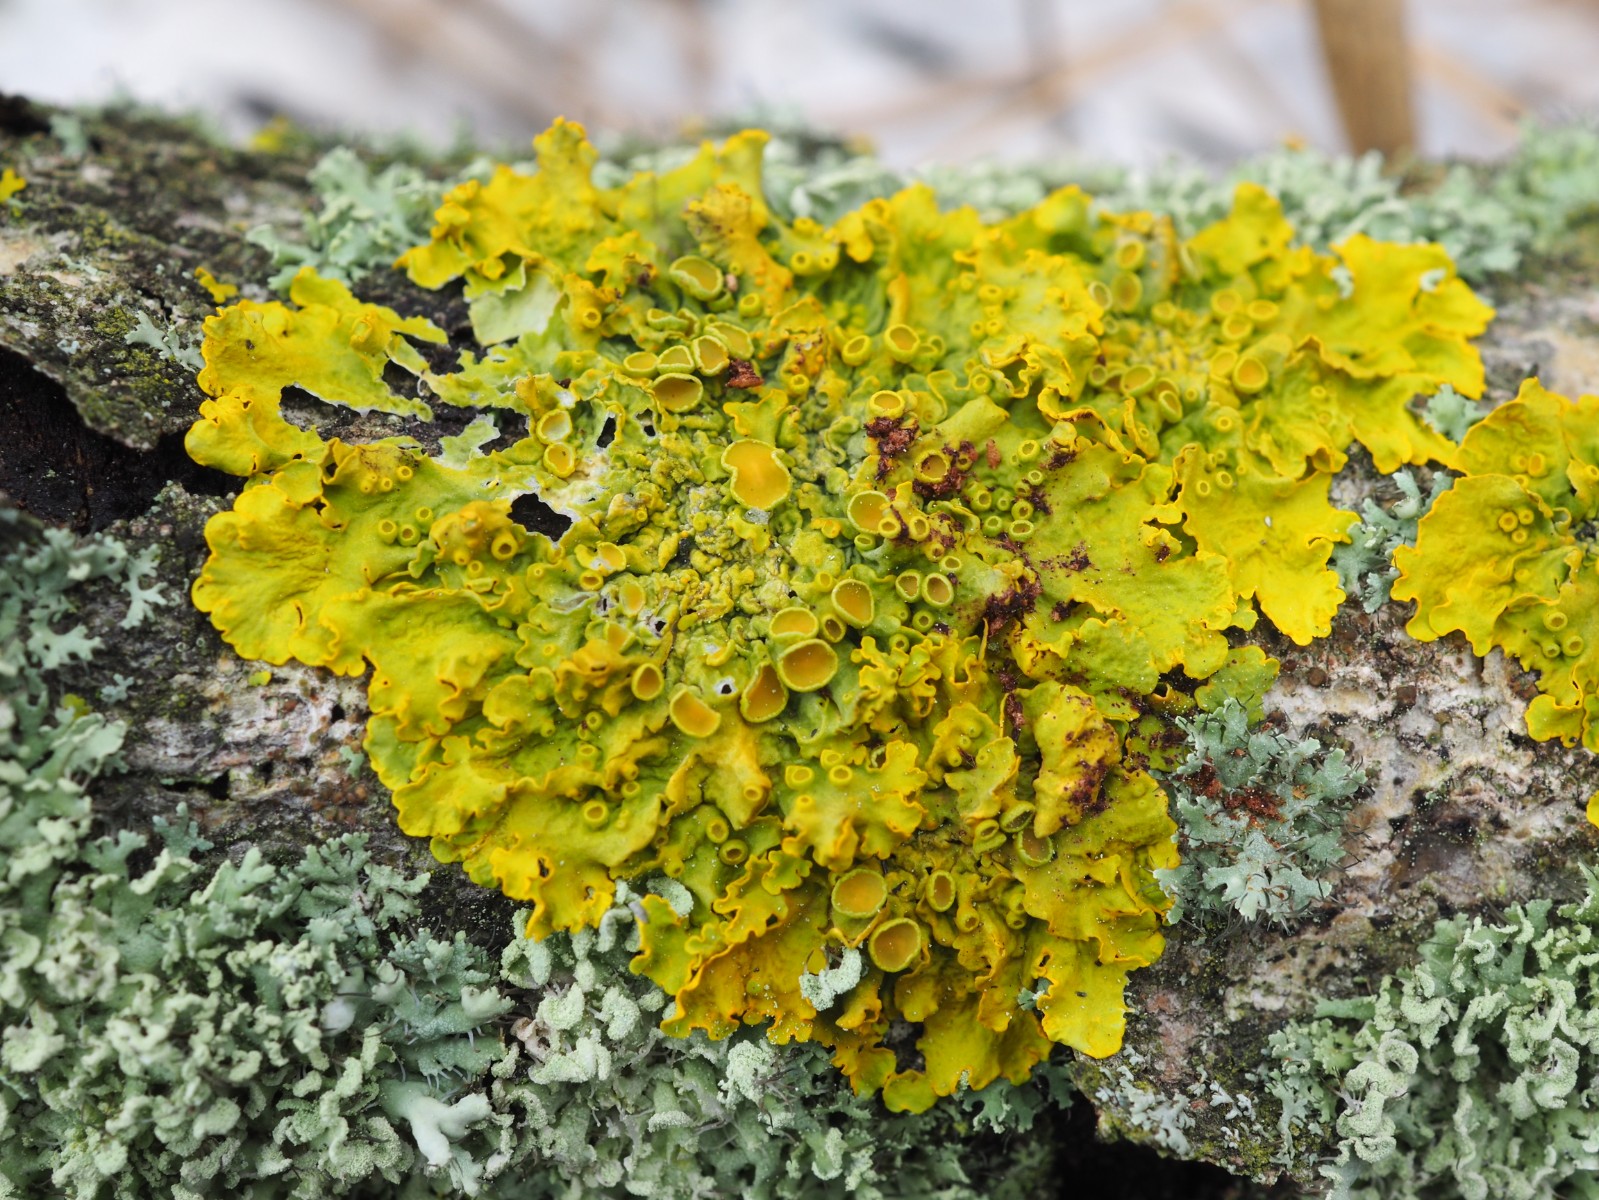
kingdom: Fungi
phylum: Ascomycota
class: Lecanoromycetes
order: Teloschistales
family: Teloschistaceae
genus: Xanthoria
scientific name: Xanthoria parietina
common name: almindelig væggelav
